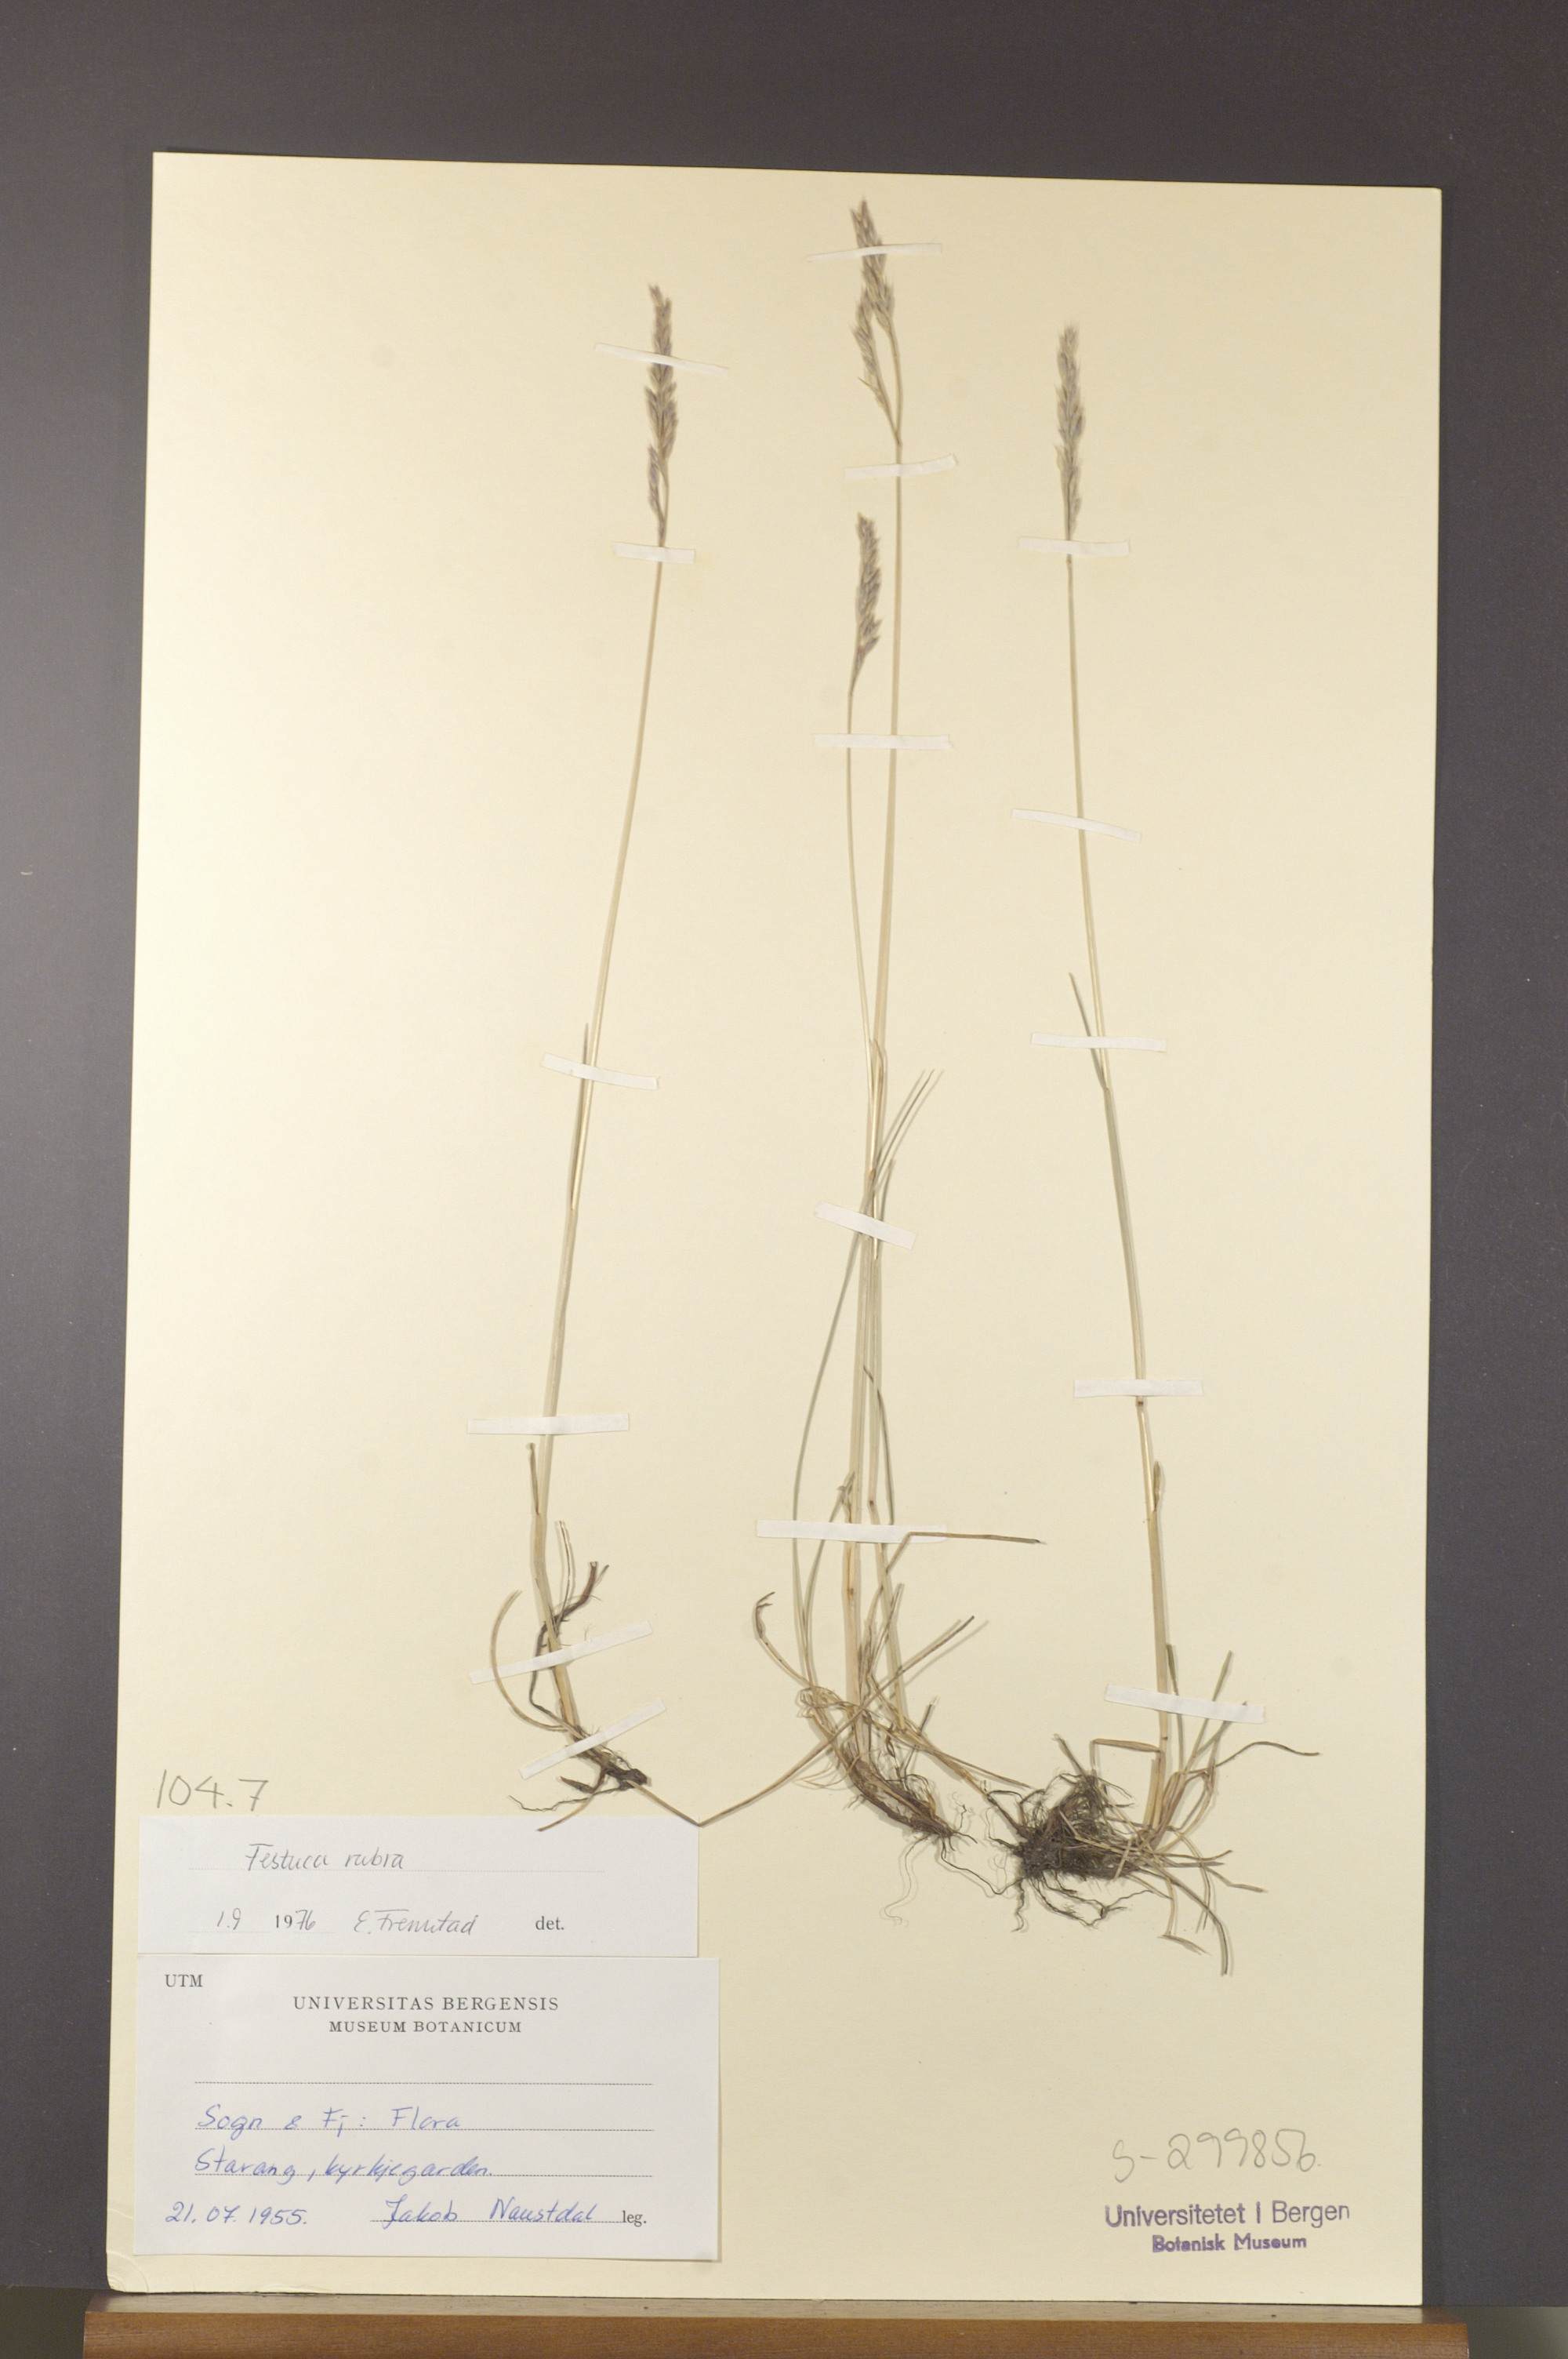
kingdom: Plantae
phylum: Tracheophyta
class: Liliopsida
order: Poales
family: Poaceae
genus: Festuca
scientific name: Festuca rubra
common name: Red fescue
